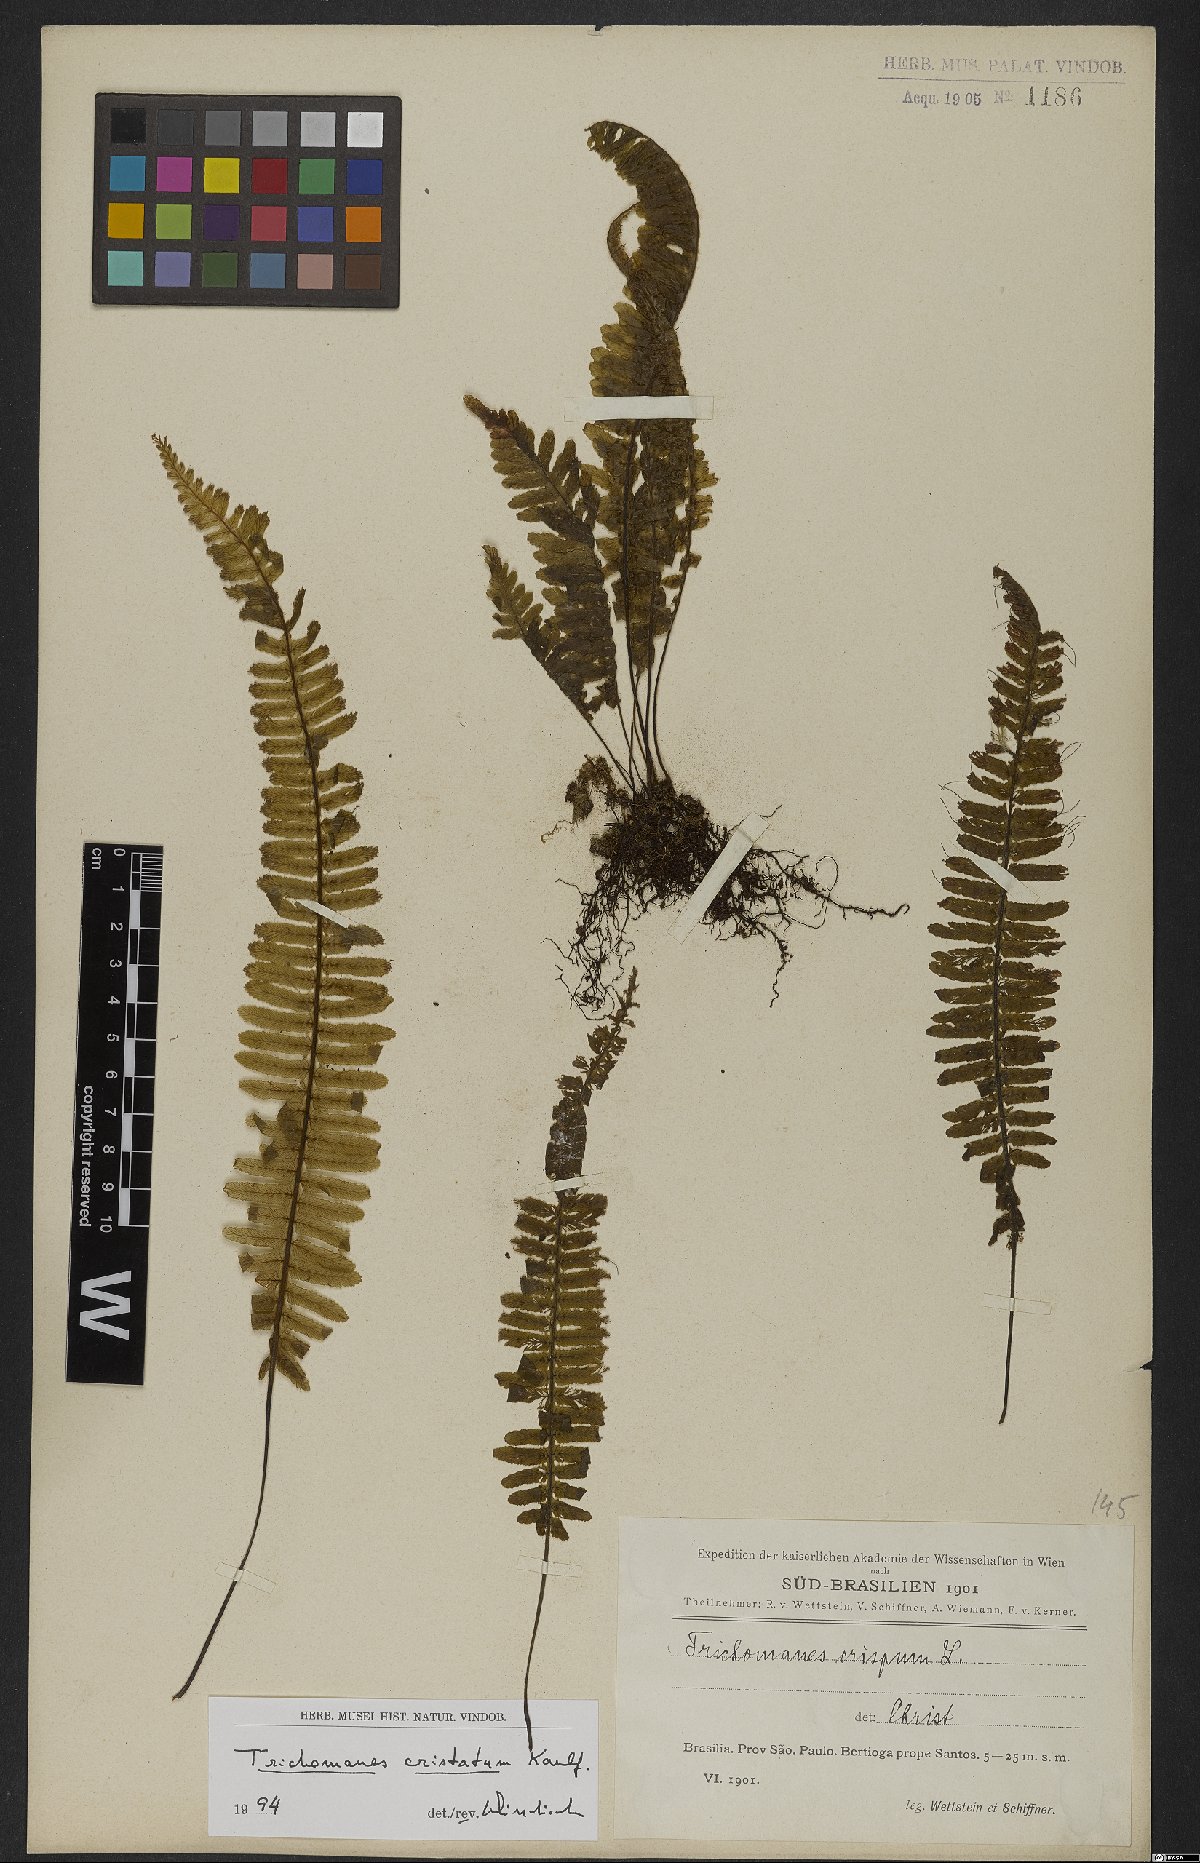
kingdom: Plantae
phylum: Tracheophyta
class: Polypodiopsida
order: Hymenophyllales
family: Hymenophyllaceae
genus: Trichomanes
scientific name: Trichomanes cristatum
